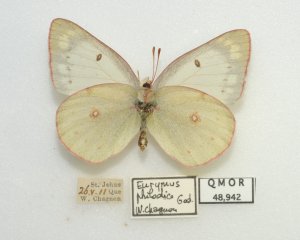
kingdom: Animalia
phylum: Arthropoda
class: Insecta
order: Lepidoptera
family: Pieridae
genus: Colias
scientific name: Colias philodice
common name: Clouded Sulphur
